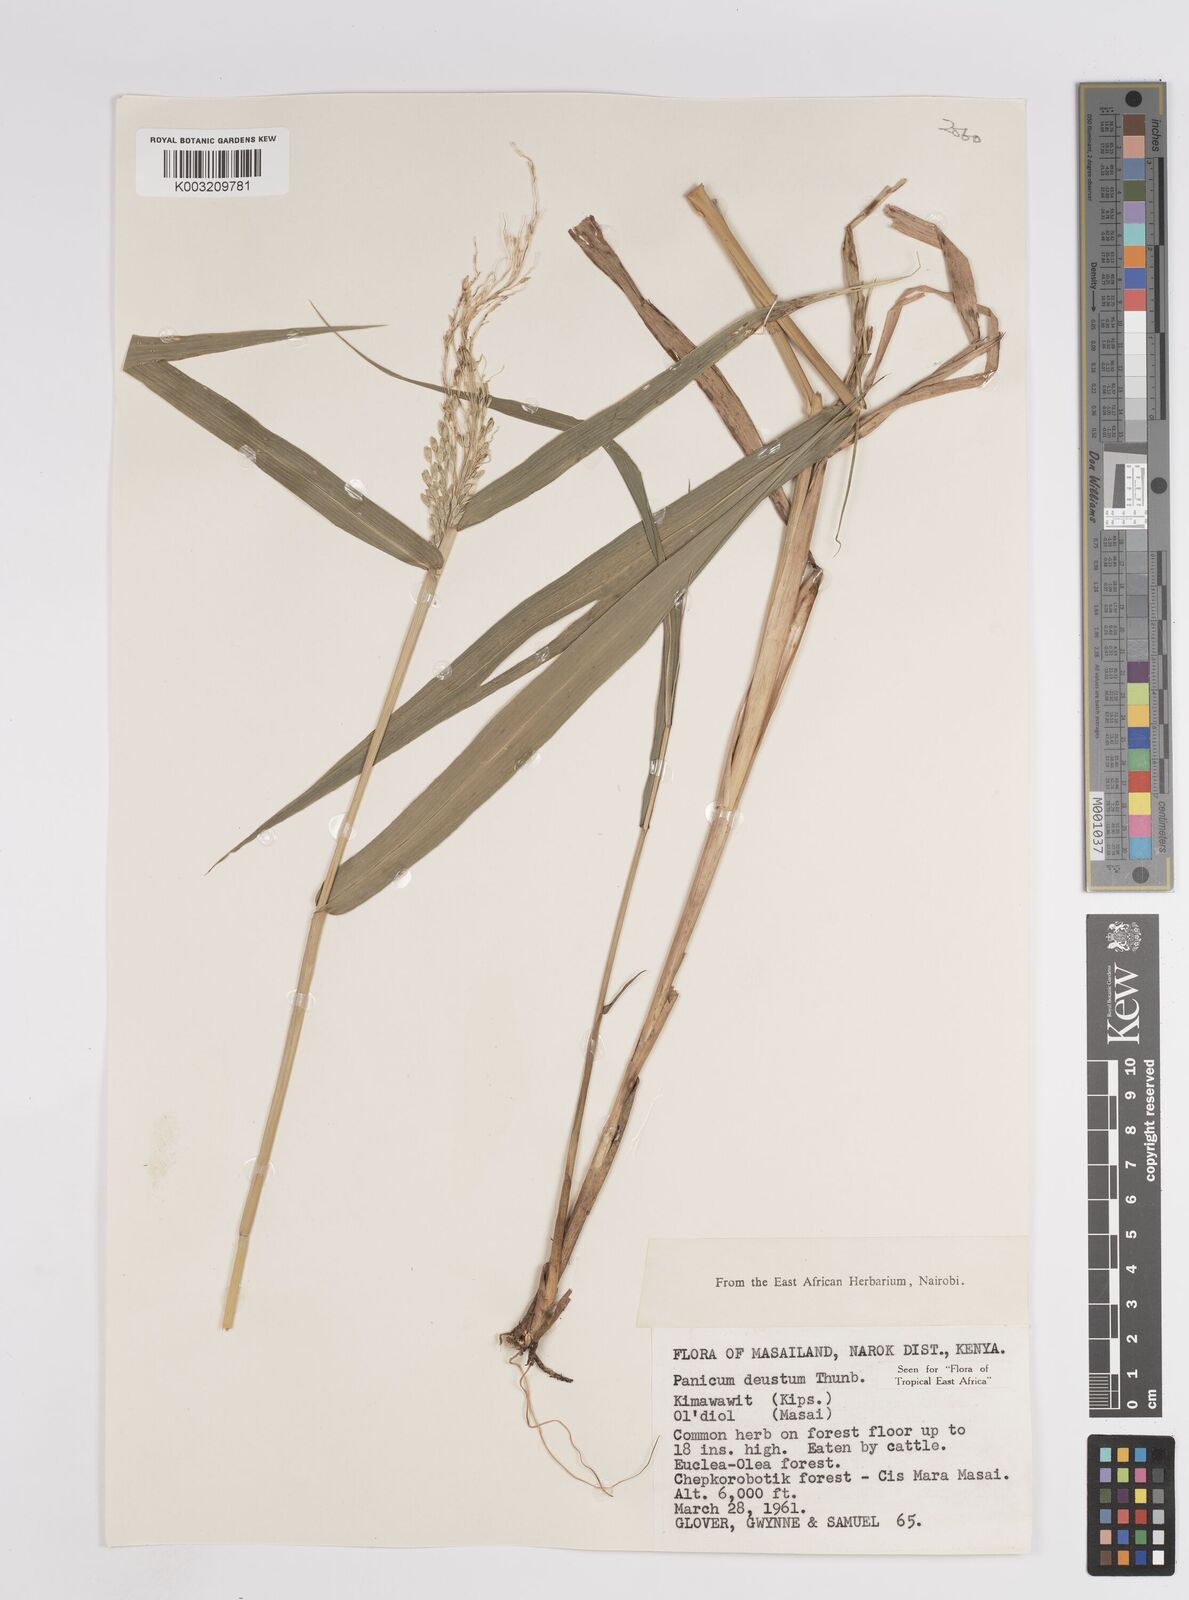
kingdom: Plantae
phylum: Tracheophyta
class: Liliopsida
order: Poales
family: Poaceae
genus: Panicum
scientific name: Panicum deustum
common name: Reed panicum
